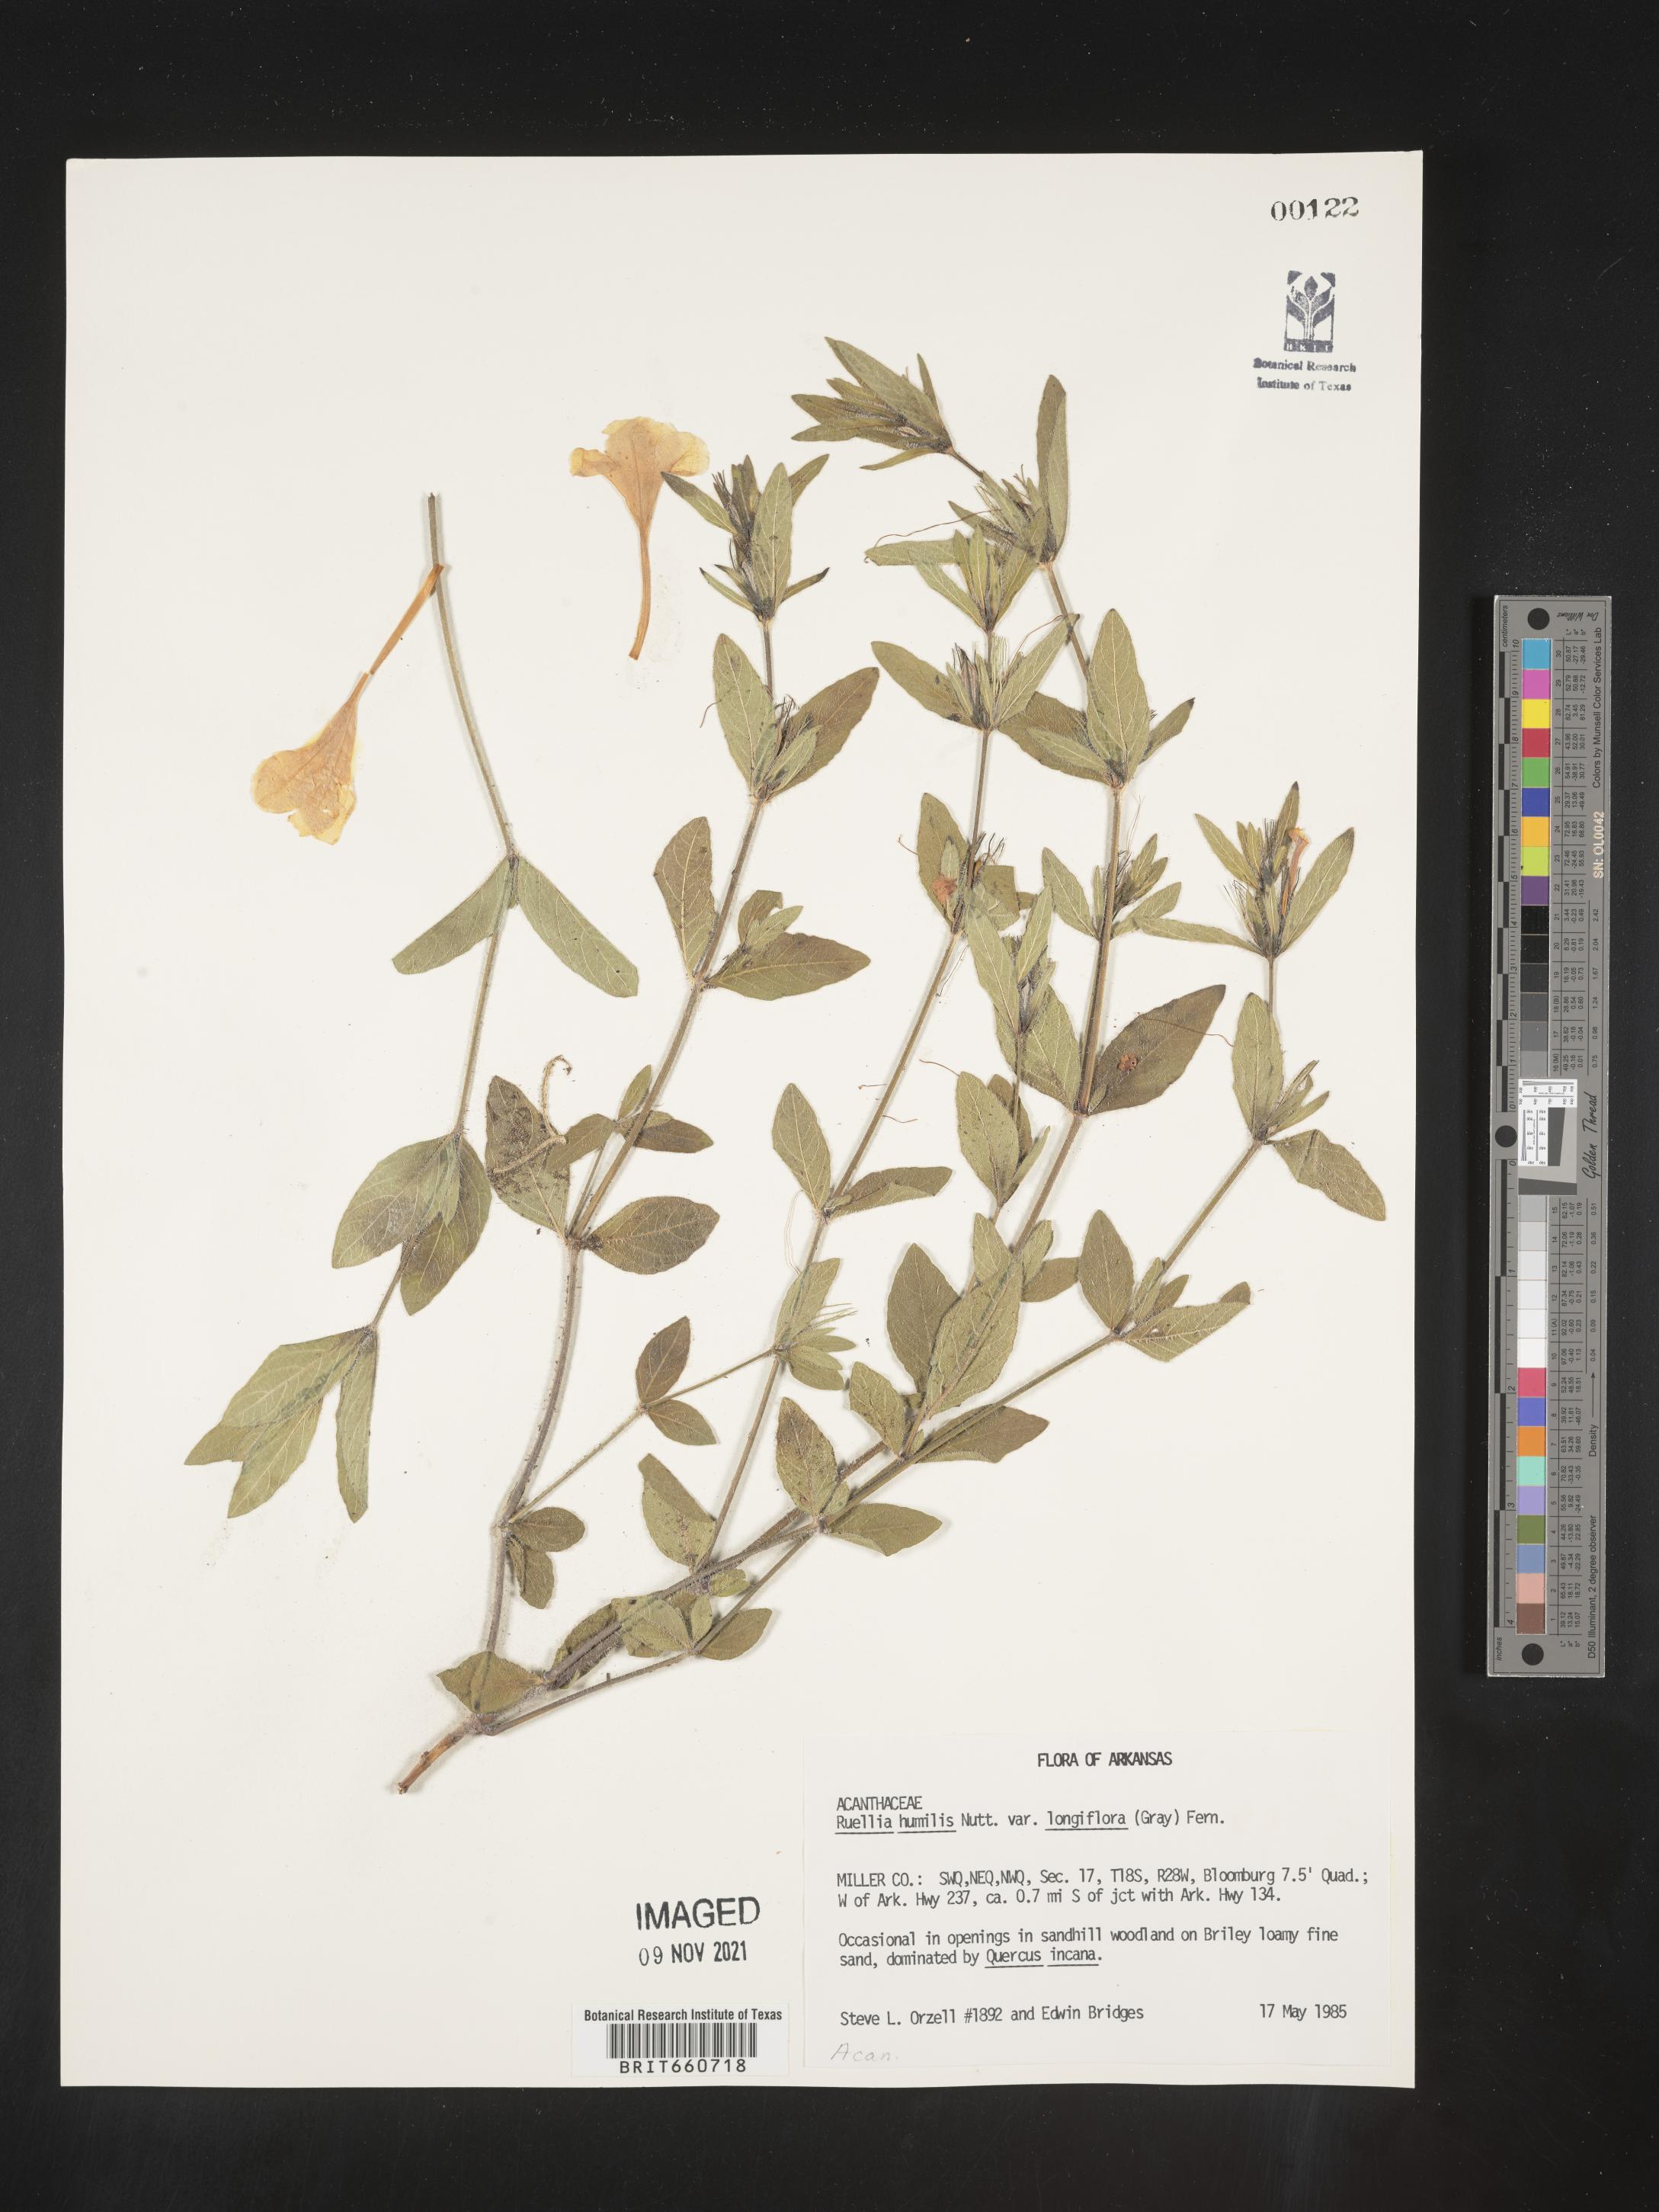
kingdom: Plantae
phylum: Tracheophyta
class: Magnoliopsida
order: Lamiales
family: Acanthaceae
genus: Ruellia
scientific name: Ruellia humilis
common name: Fringe-leaf ruellia
